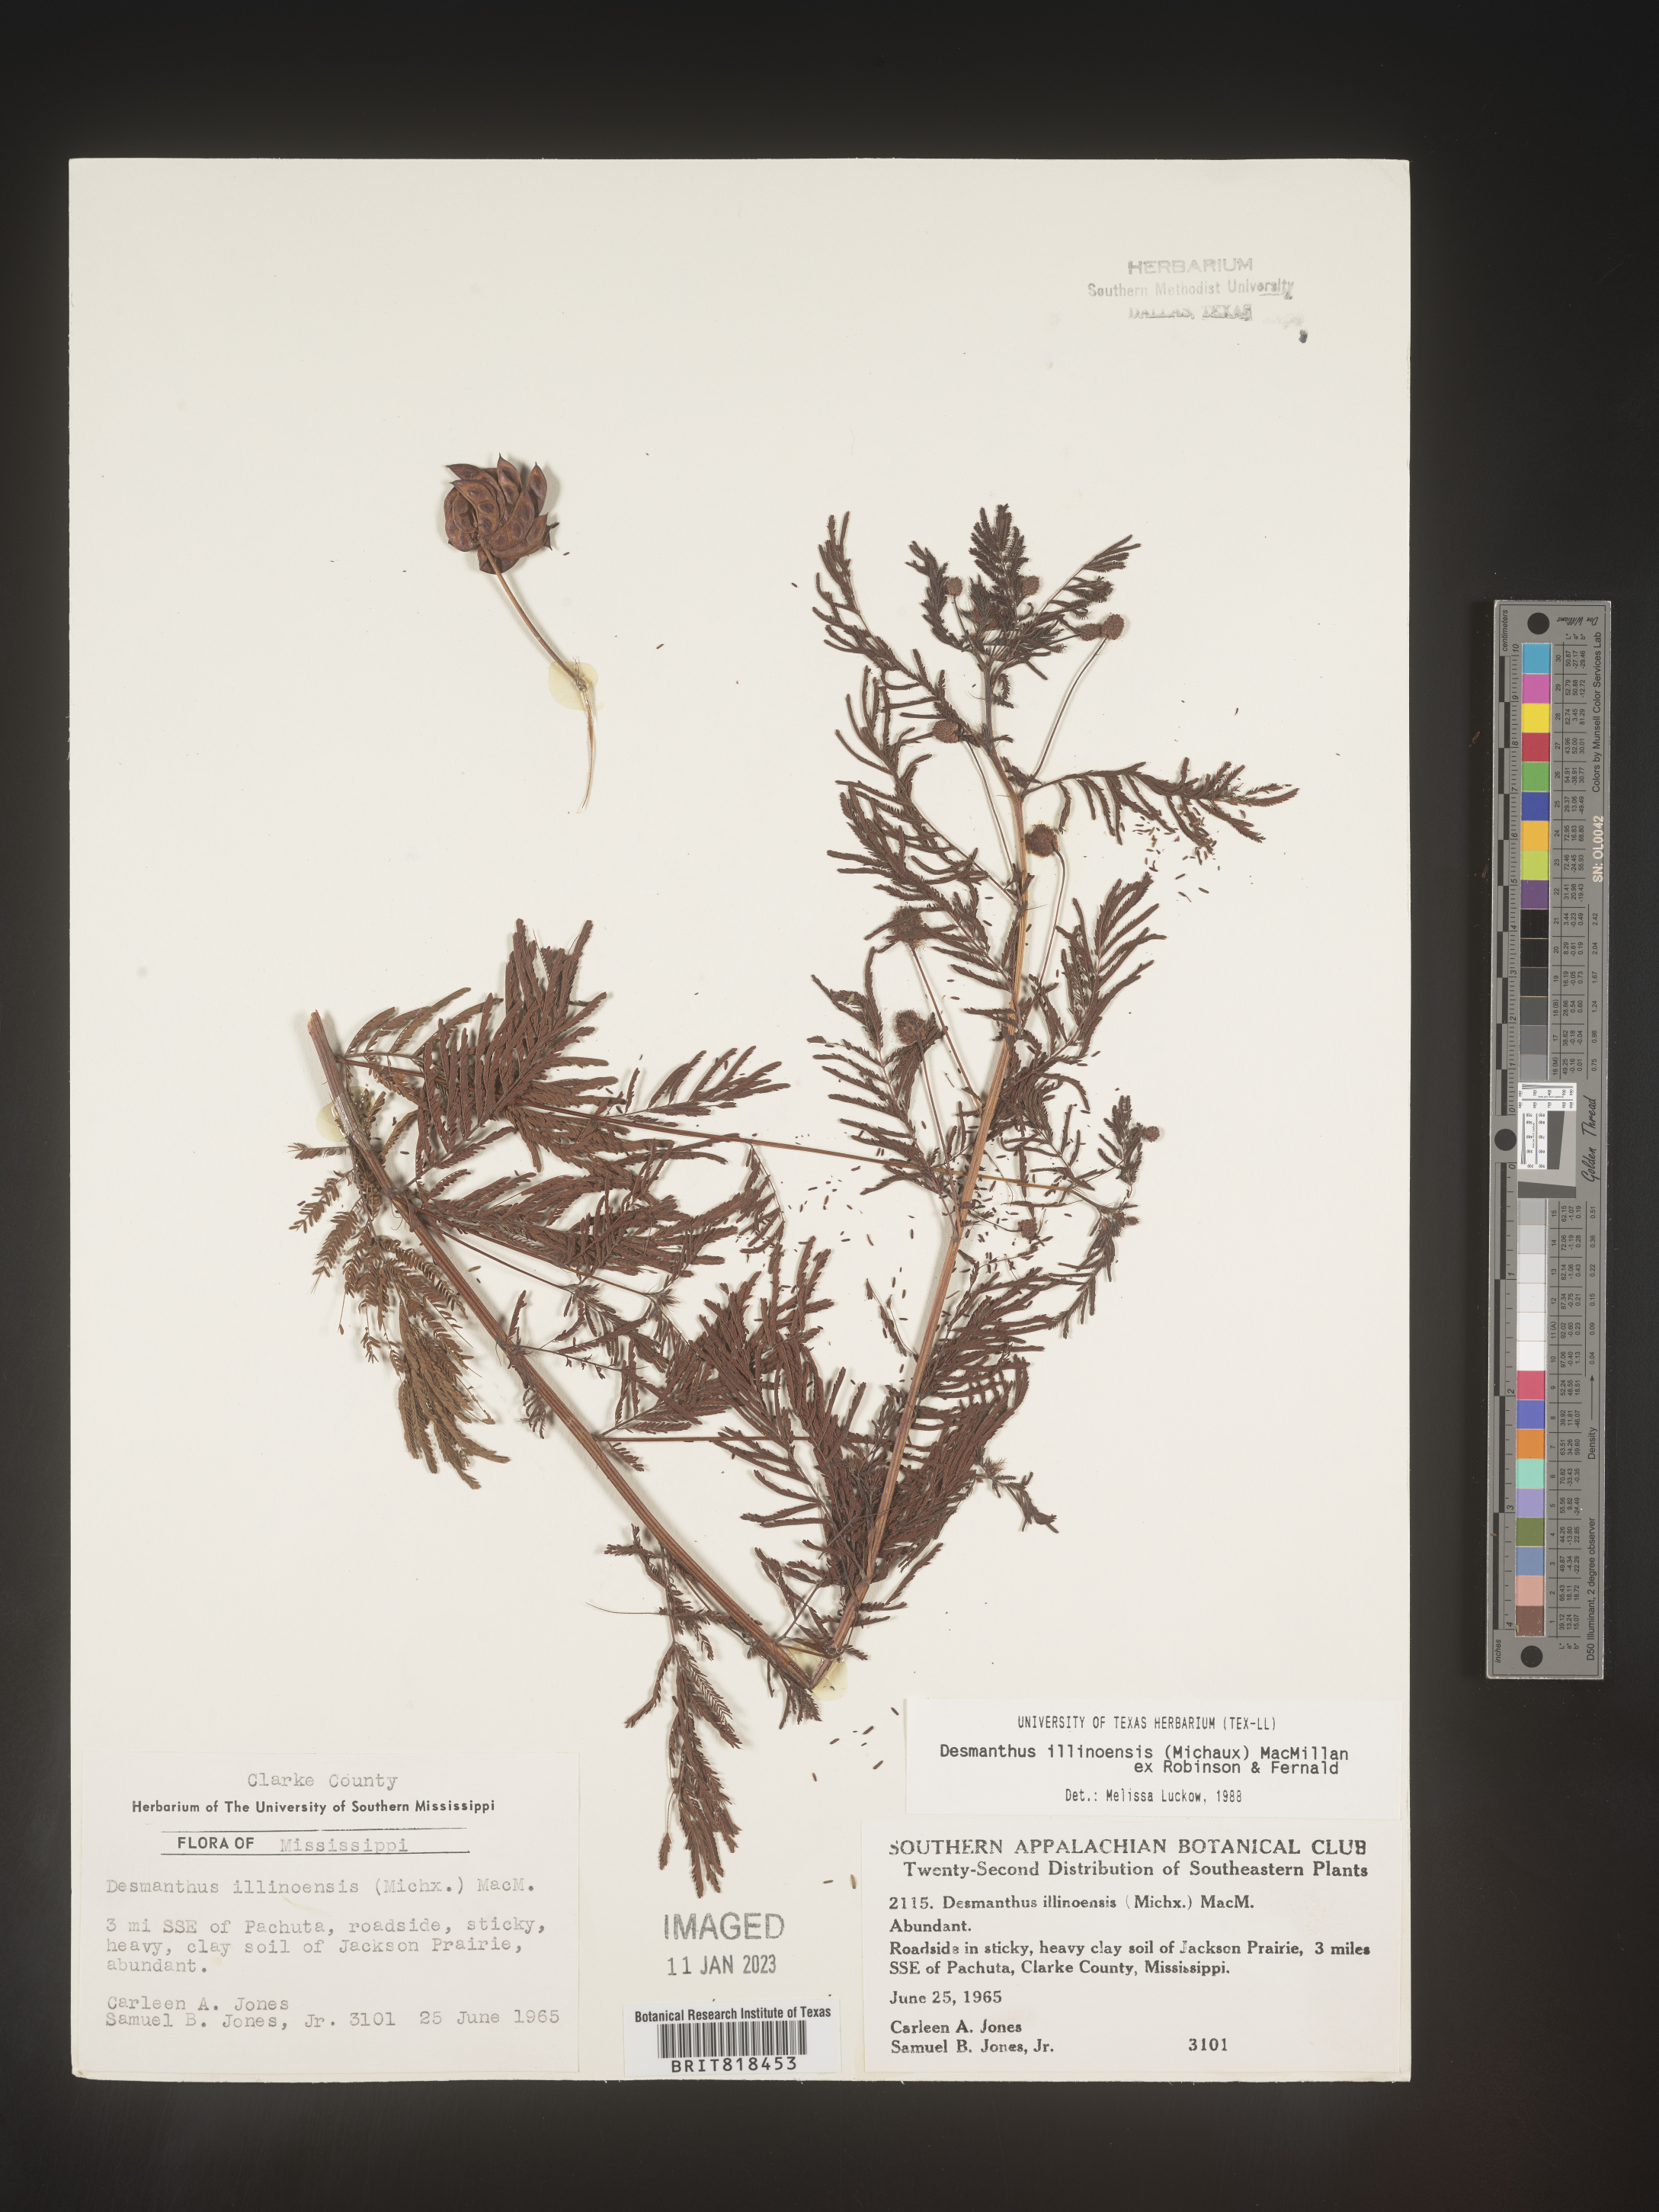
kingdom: Plantae
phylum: Tracheophyta
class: Magnoliopsida
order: Fabales
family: Fabaceae
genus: Desmanthus
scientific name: Desmanthus illinoensis
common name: Illinois bundle-flower
